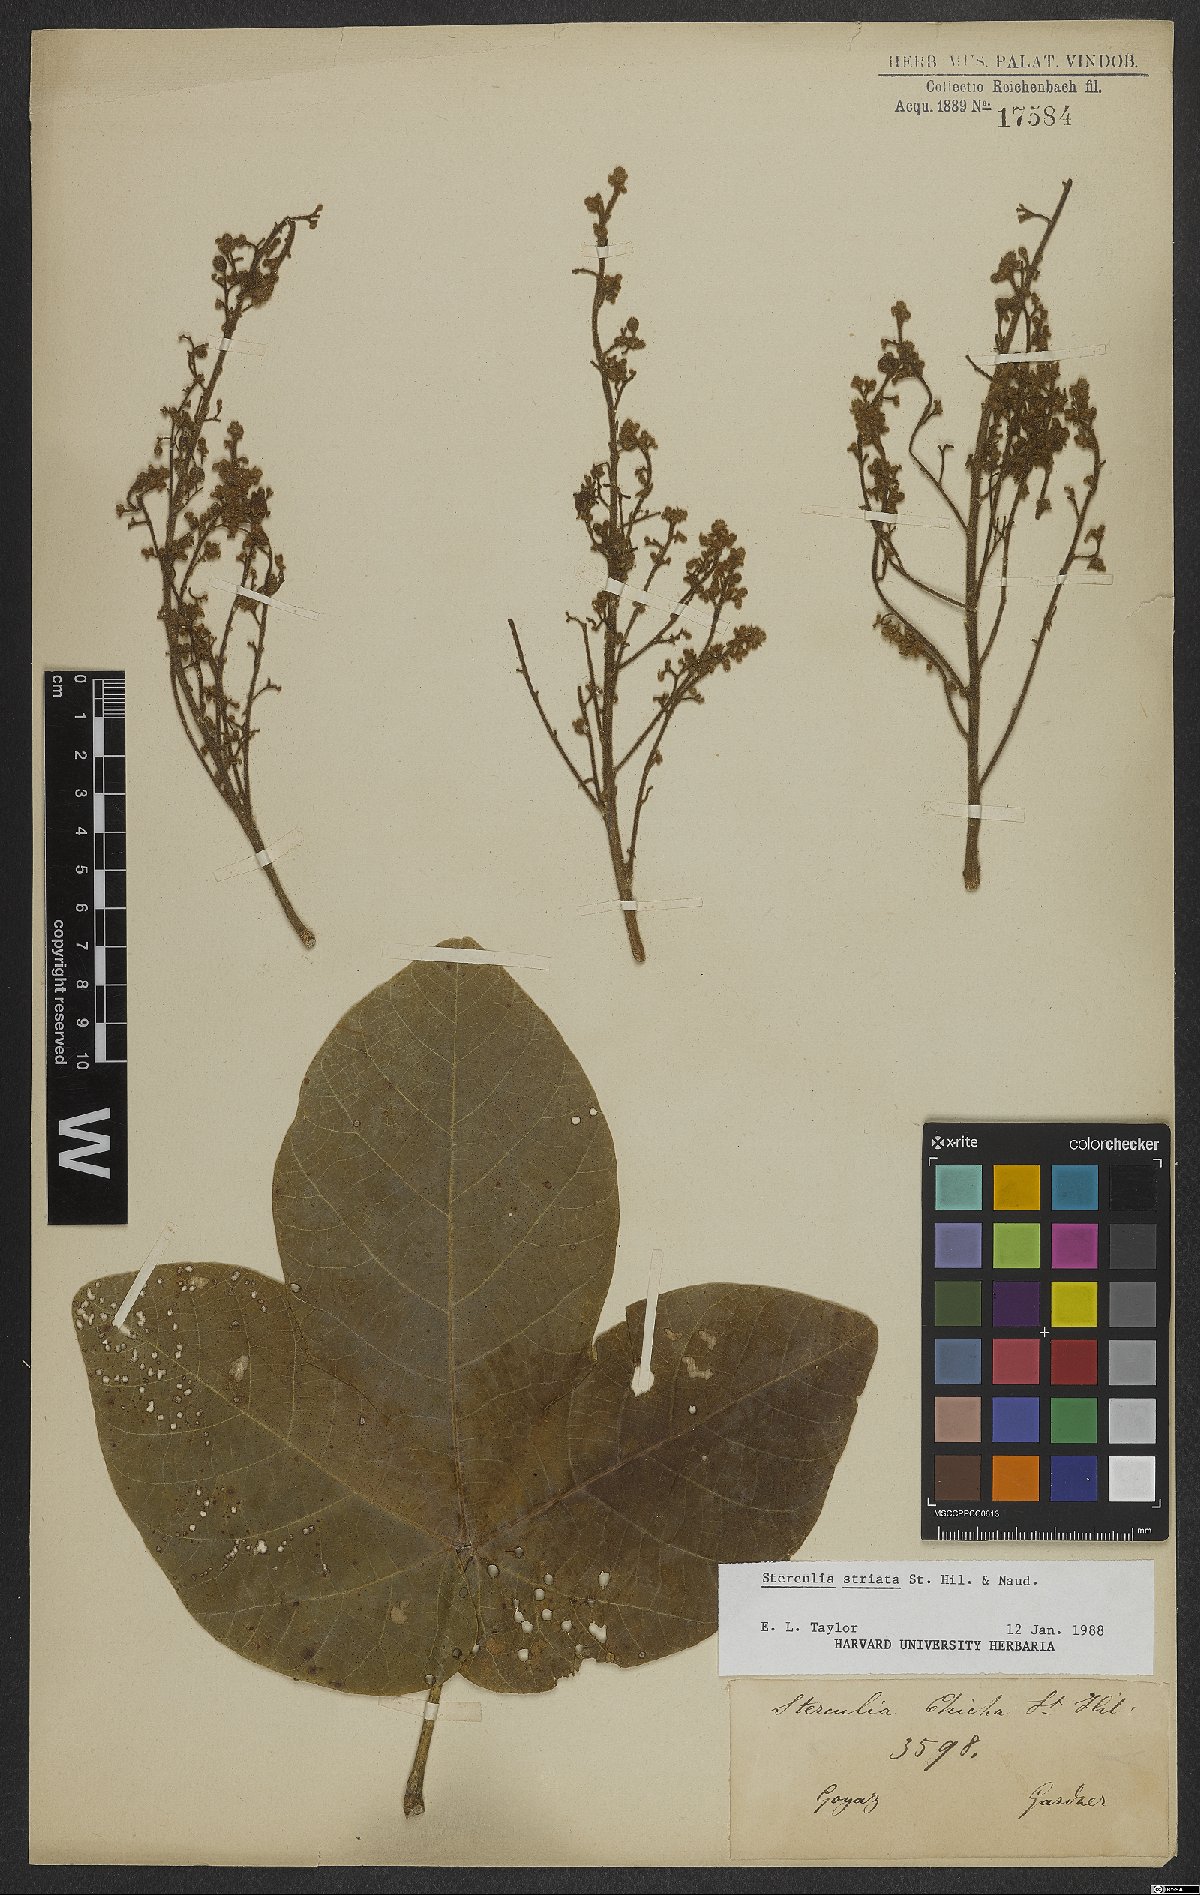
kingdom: Plantae
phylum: Tracheophyta
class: Magnoliopsida
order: Malvales
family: Malvaceae
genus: Sterculia
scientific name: Sterculia striata
